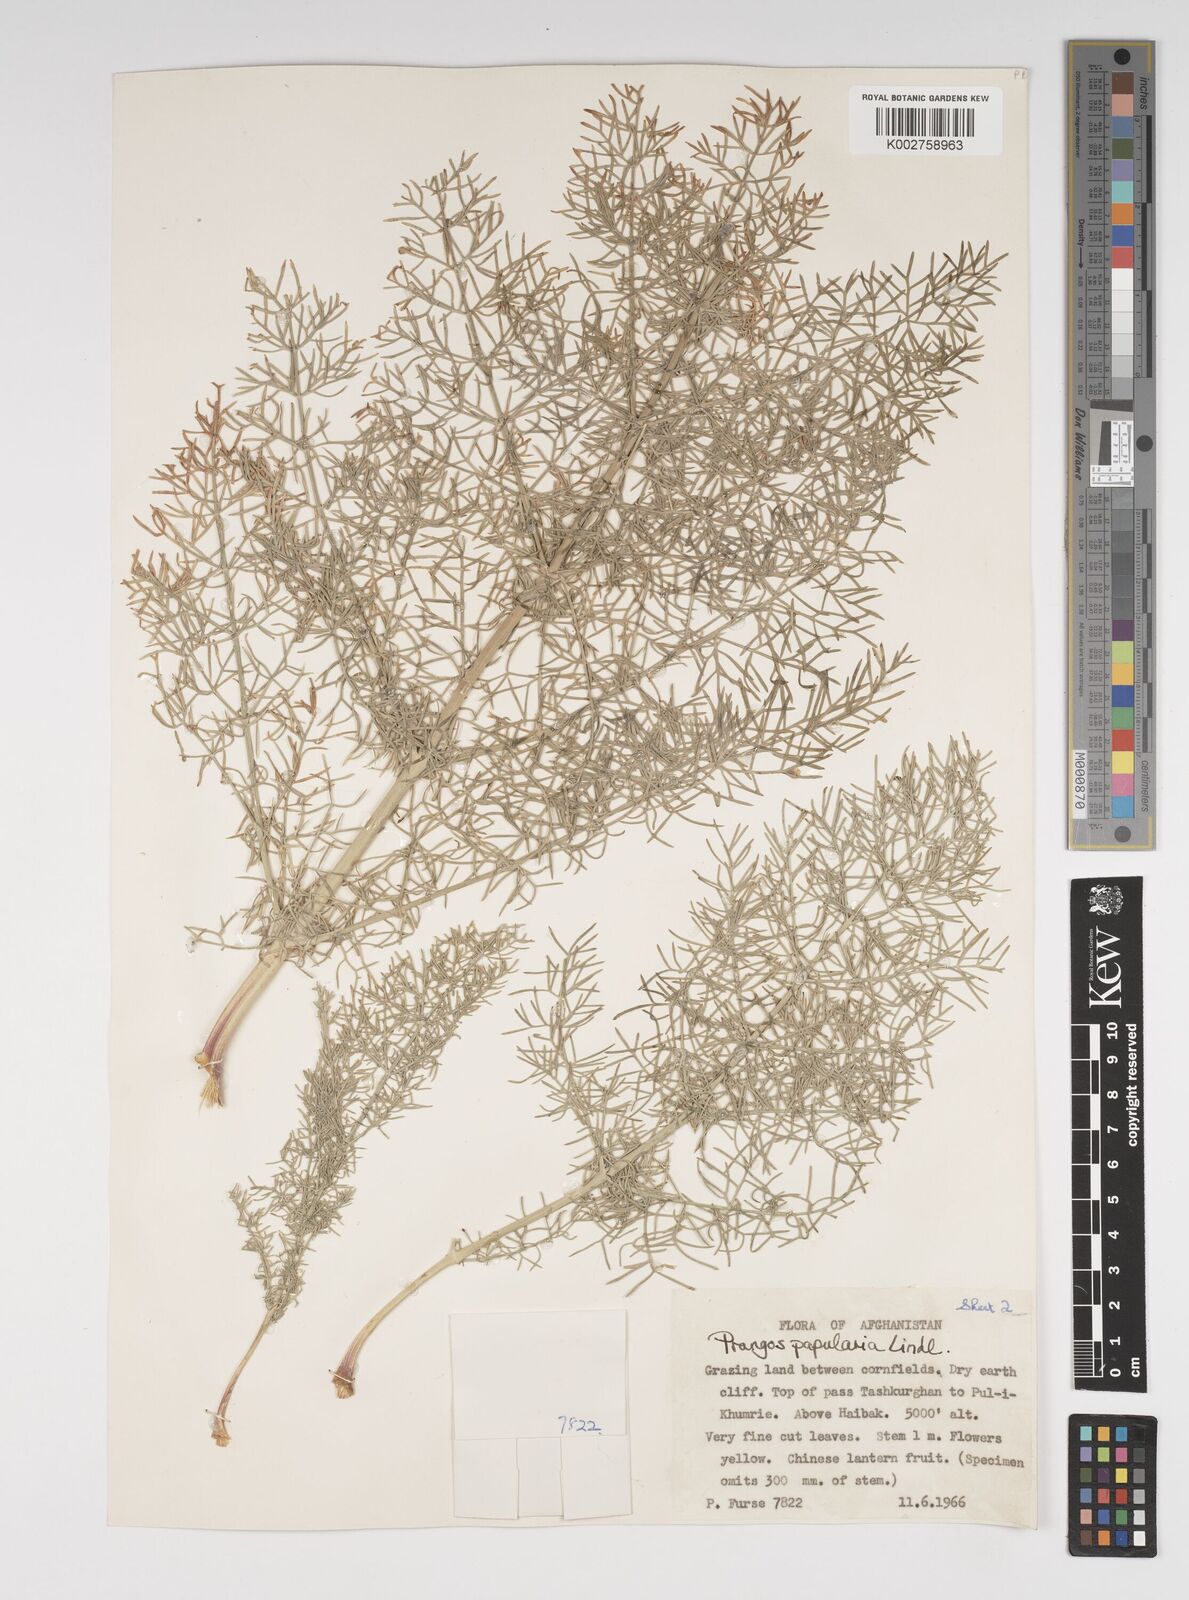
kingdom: Plantae
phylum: Tracheophyta
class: Magnoliopsida
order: Apiales
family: Apiaceae
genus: Prangos
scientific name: Prangos pabularia
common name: Yugan
